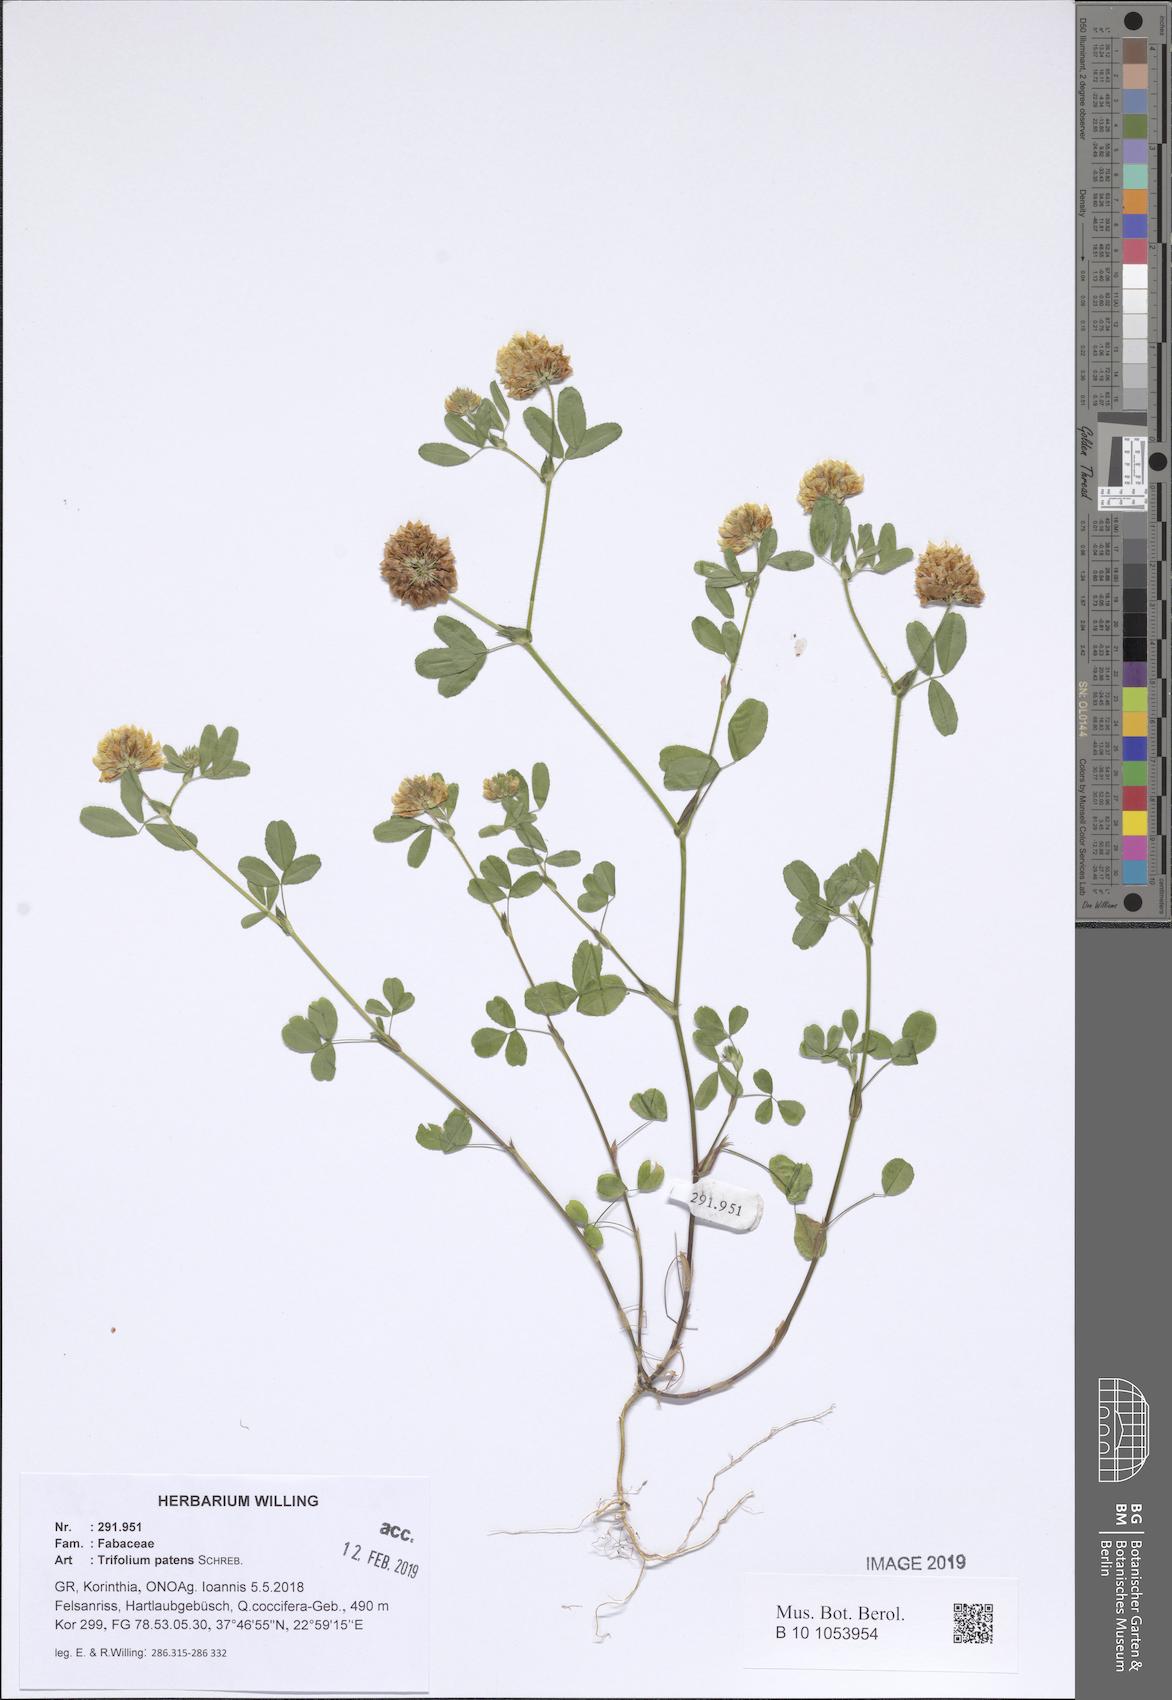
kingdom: Plantae
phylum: Tracheophyta
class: Magnoliopsida
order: Fabales
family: Fabaceae
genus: Trifolium
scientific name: Trifolium patens
